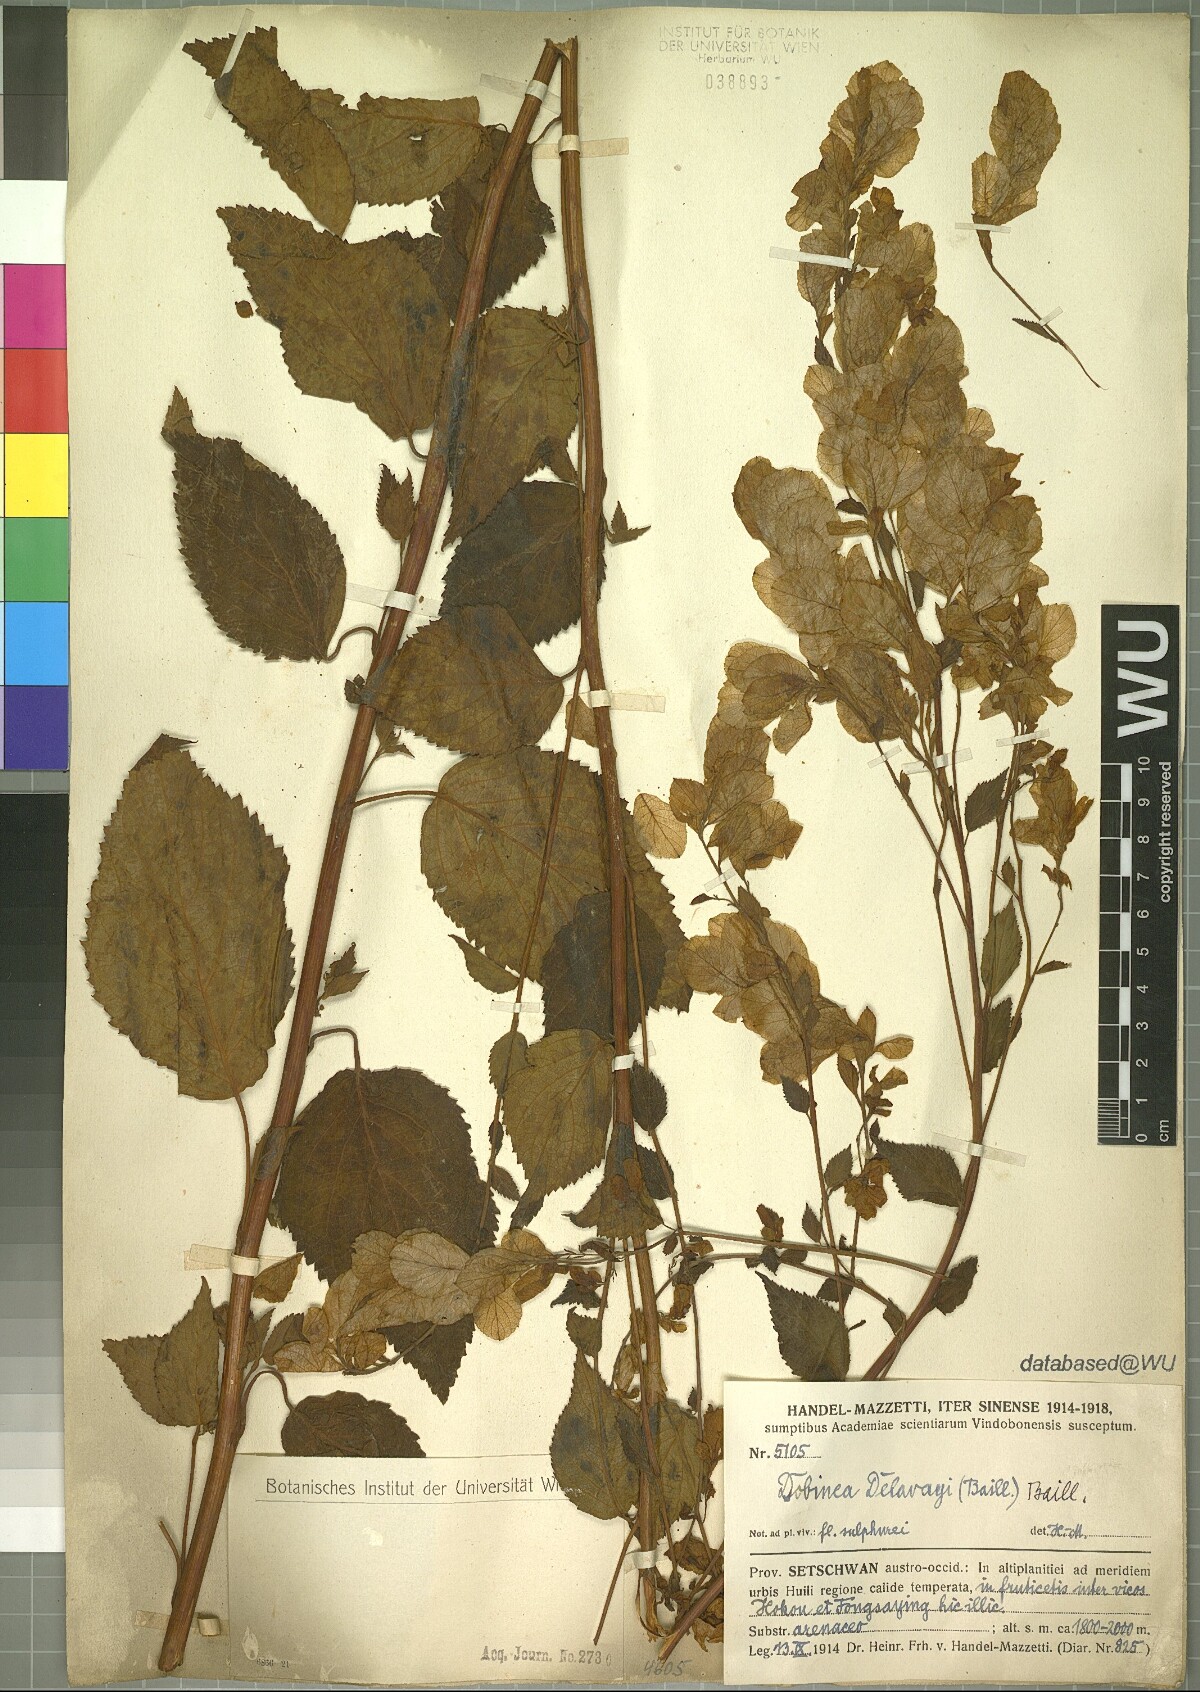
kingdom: Plantae
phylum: Tracheophyta
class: Magnoliopsida
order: Sapindales
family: Anacardiaceae
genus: Dobinea
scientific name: Dobinea delavayi
